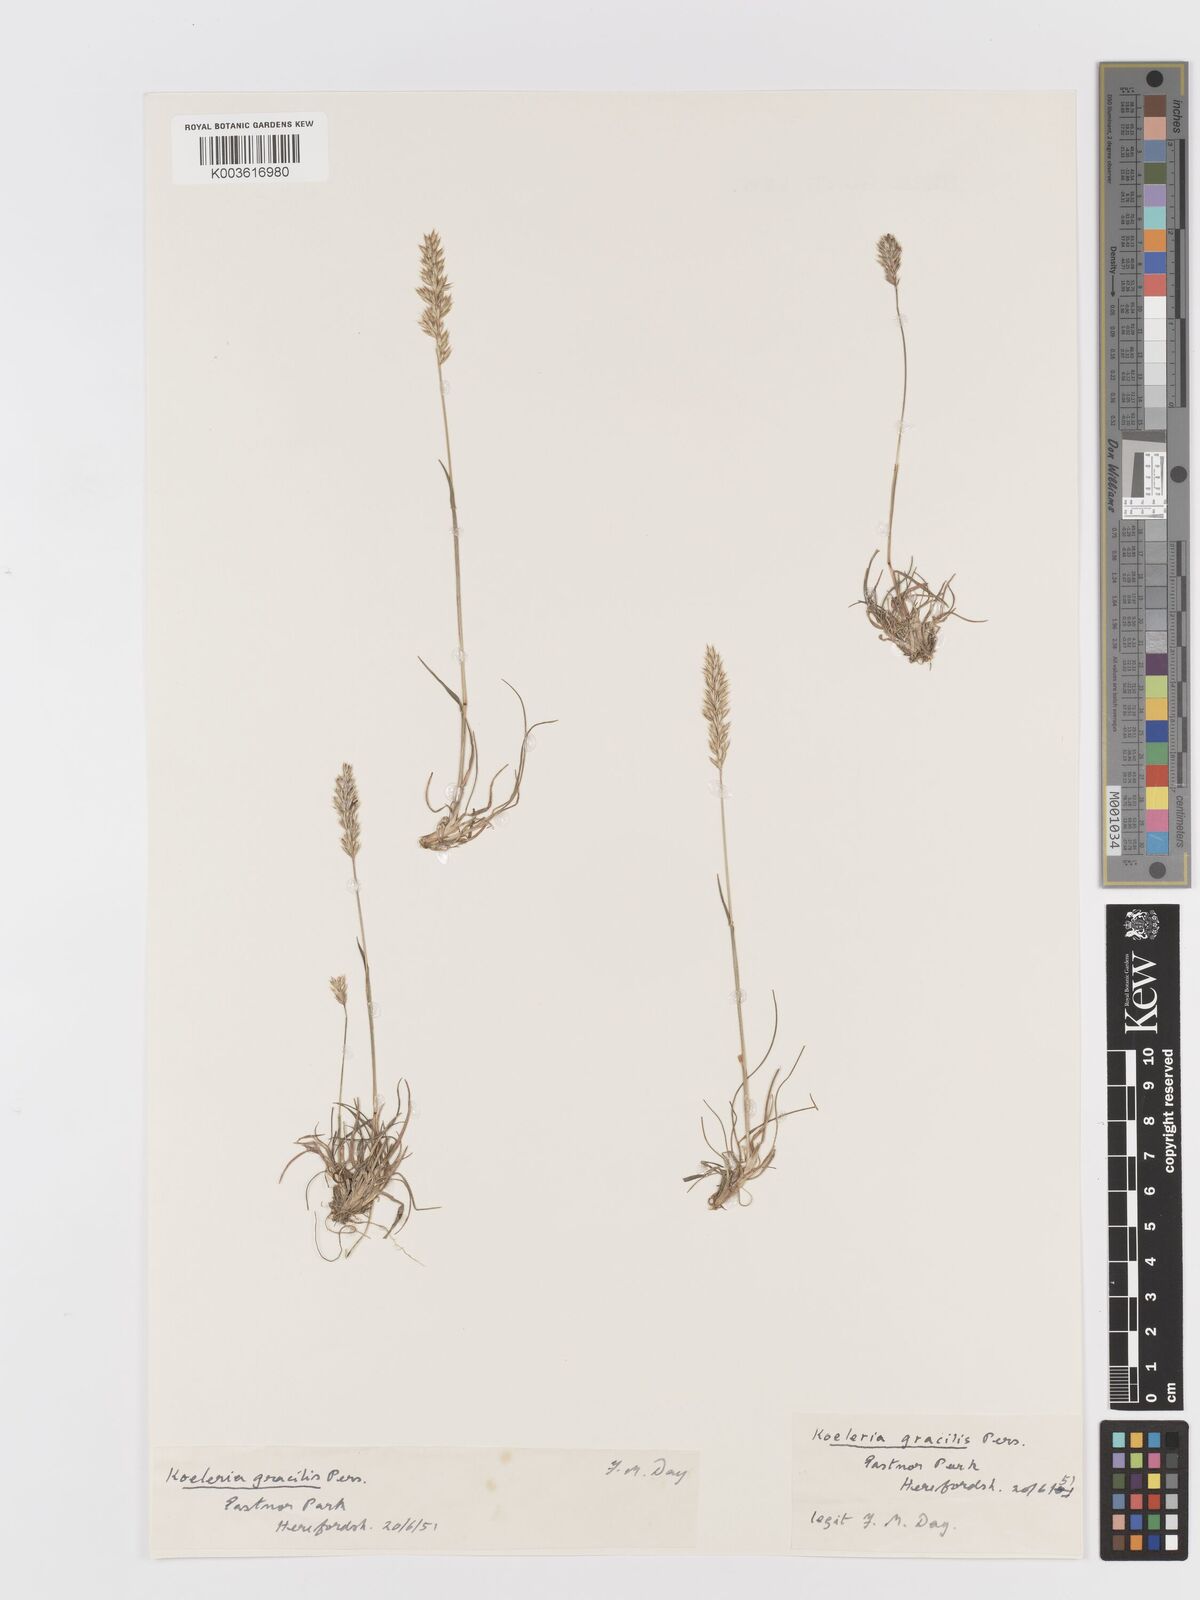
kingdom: Plantae
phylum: Tracheophyta
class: Liliopsida
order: Poales
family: Poaceae
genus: Koeleria
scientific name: Koeleria macrantha
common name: Crested hair-grass
